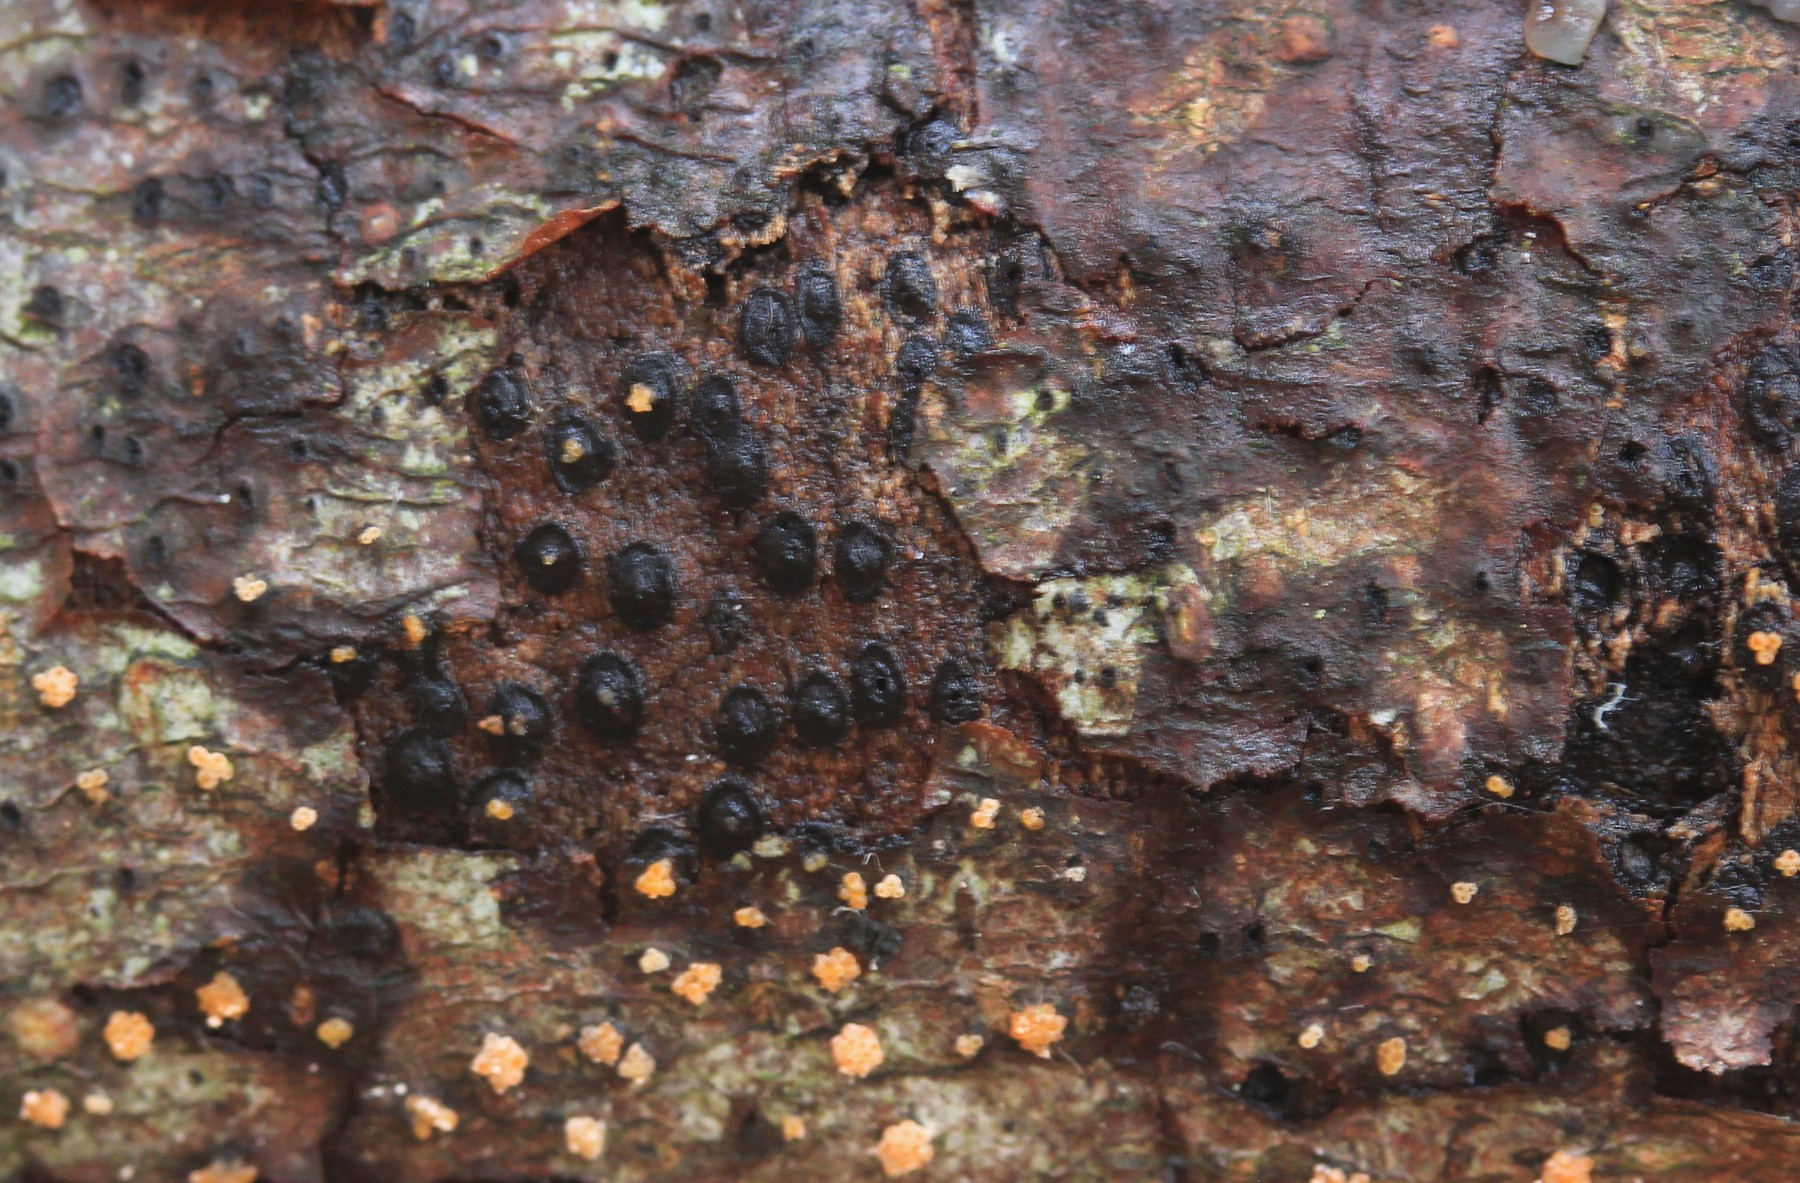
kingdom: Fungi
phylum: Ascomycota
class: Dothideomycetes
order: Pleosporales
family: Massariaceae
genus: Massaria
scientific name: Massaria inquinans
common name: ahorn-kulvulkan
